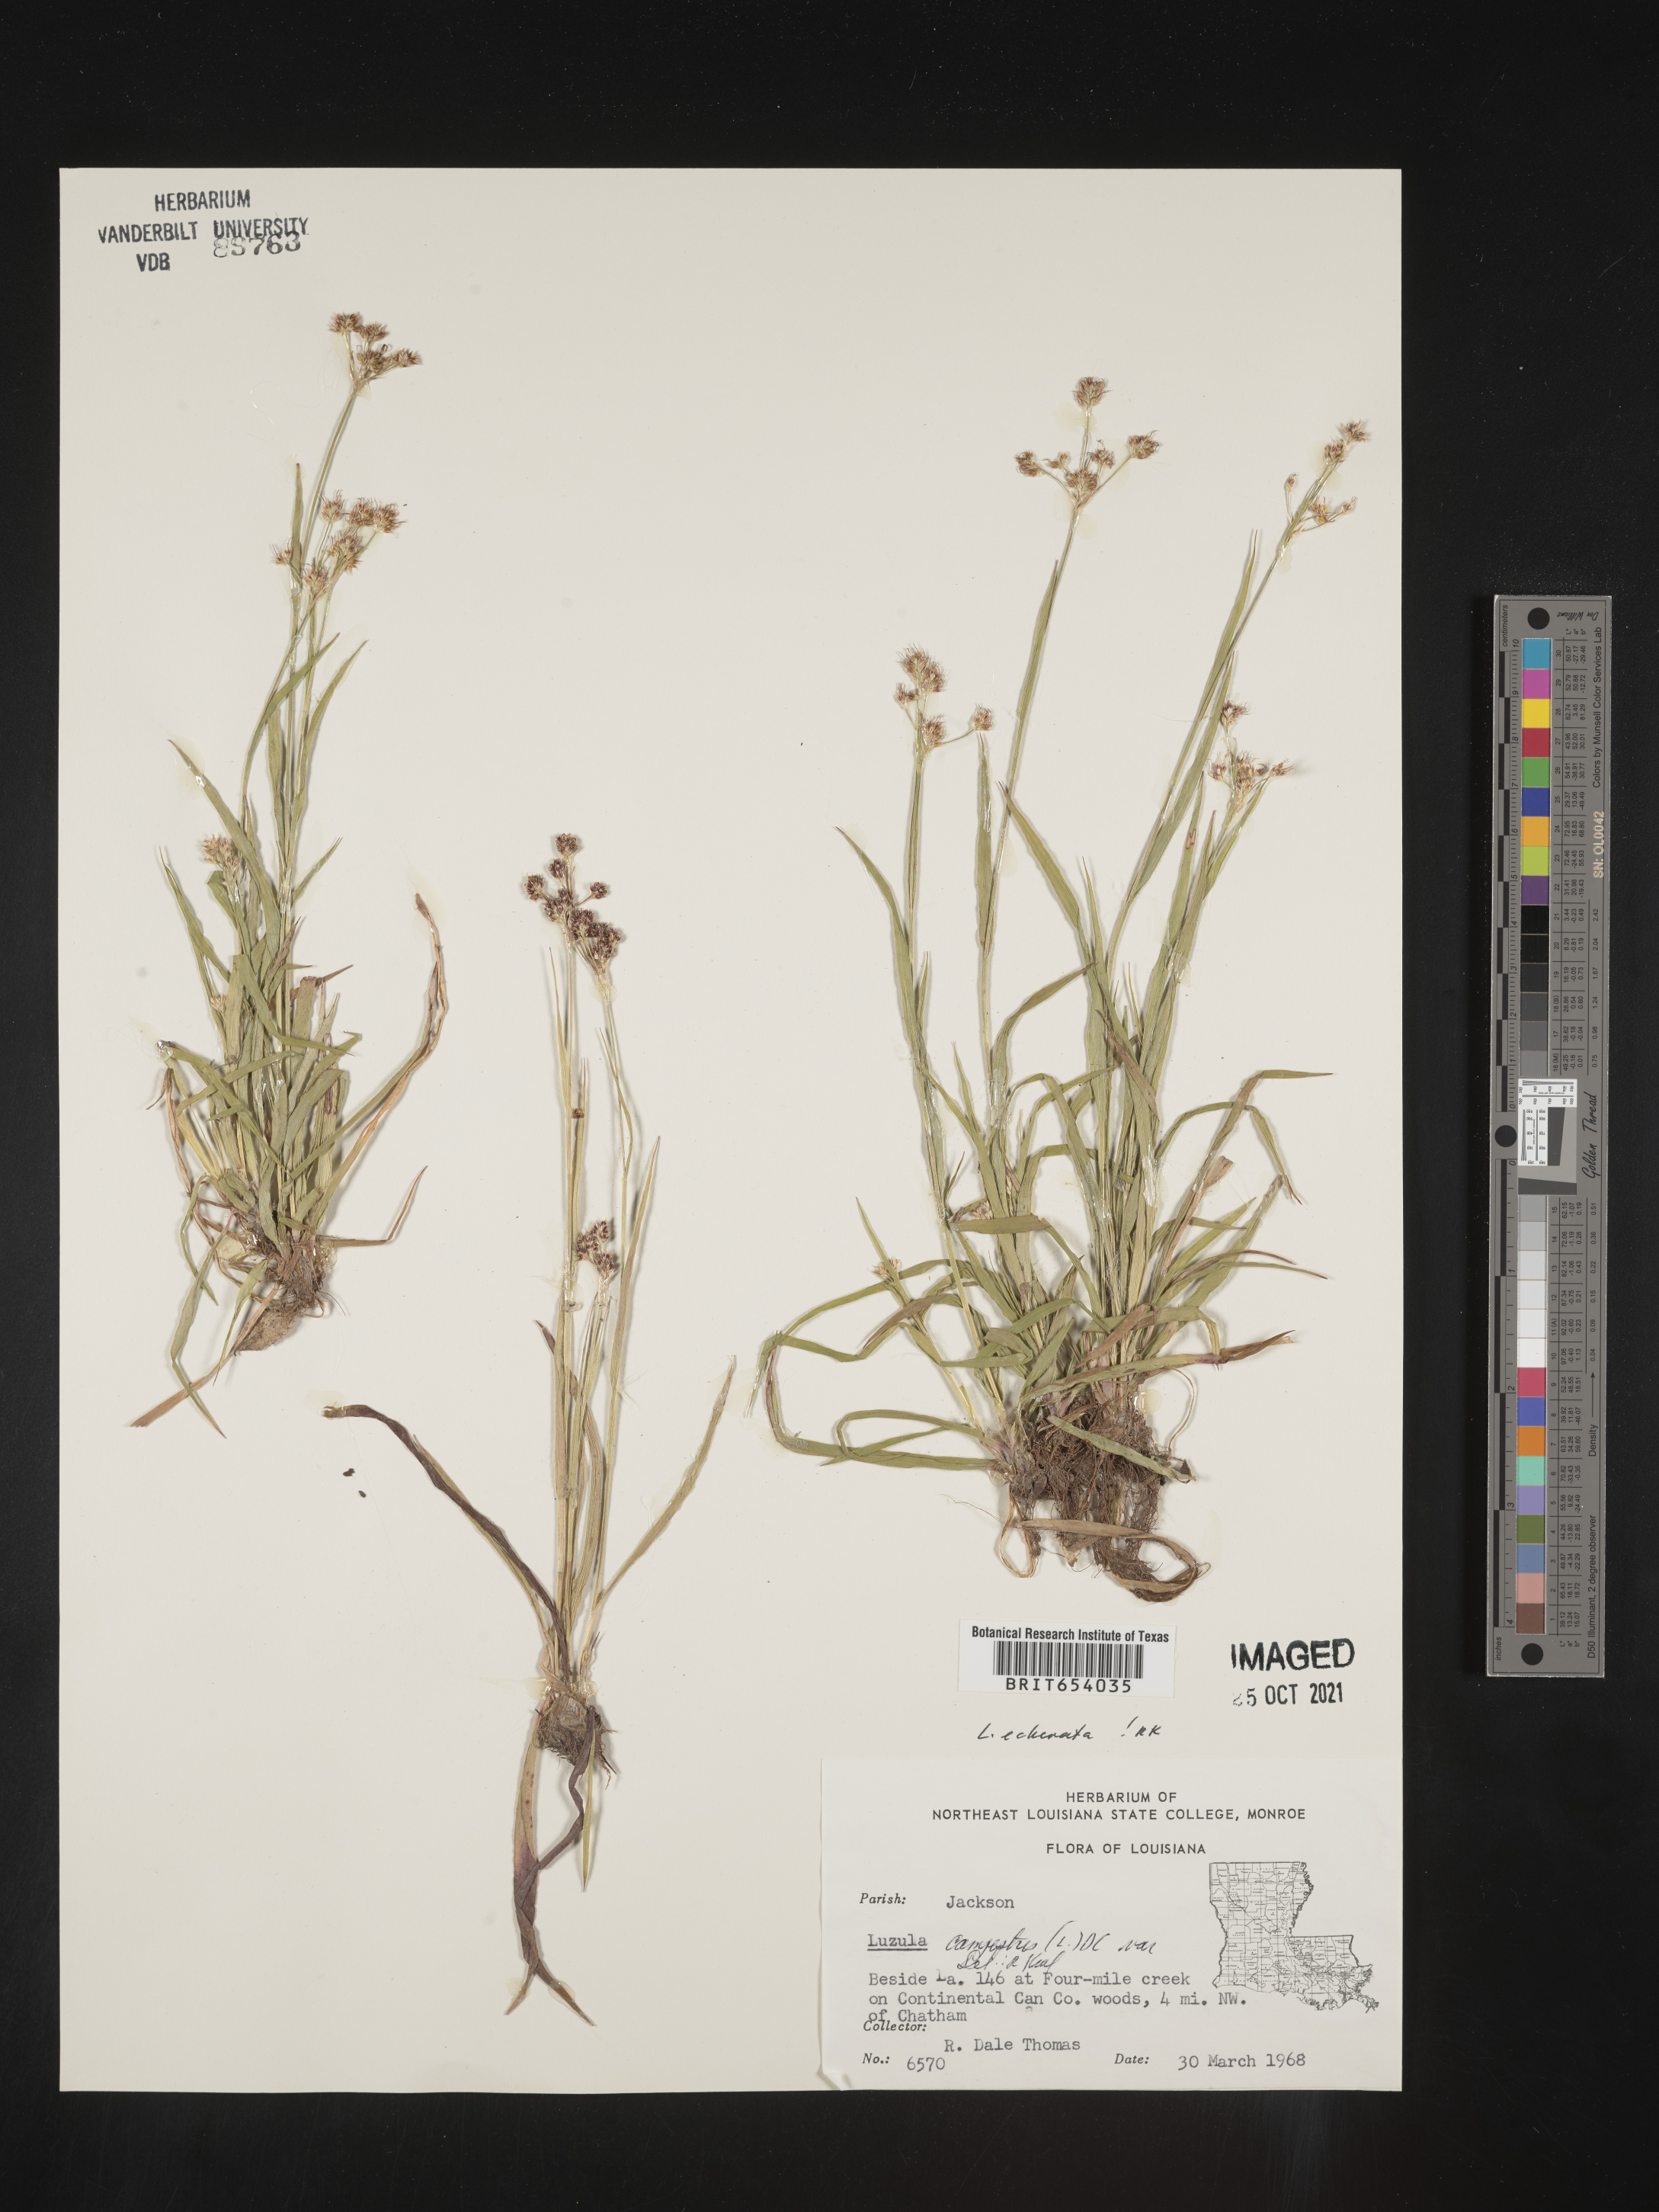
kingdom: Plantae
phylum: Tracheophyta
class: Liliopsida
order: Poales
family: Juncaceae
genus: Luzula
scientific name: Luzula echinata
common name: Hedgehog woodrush
